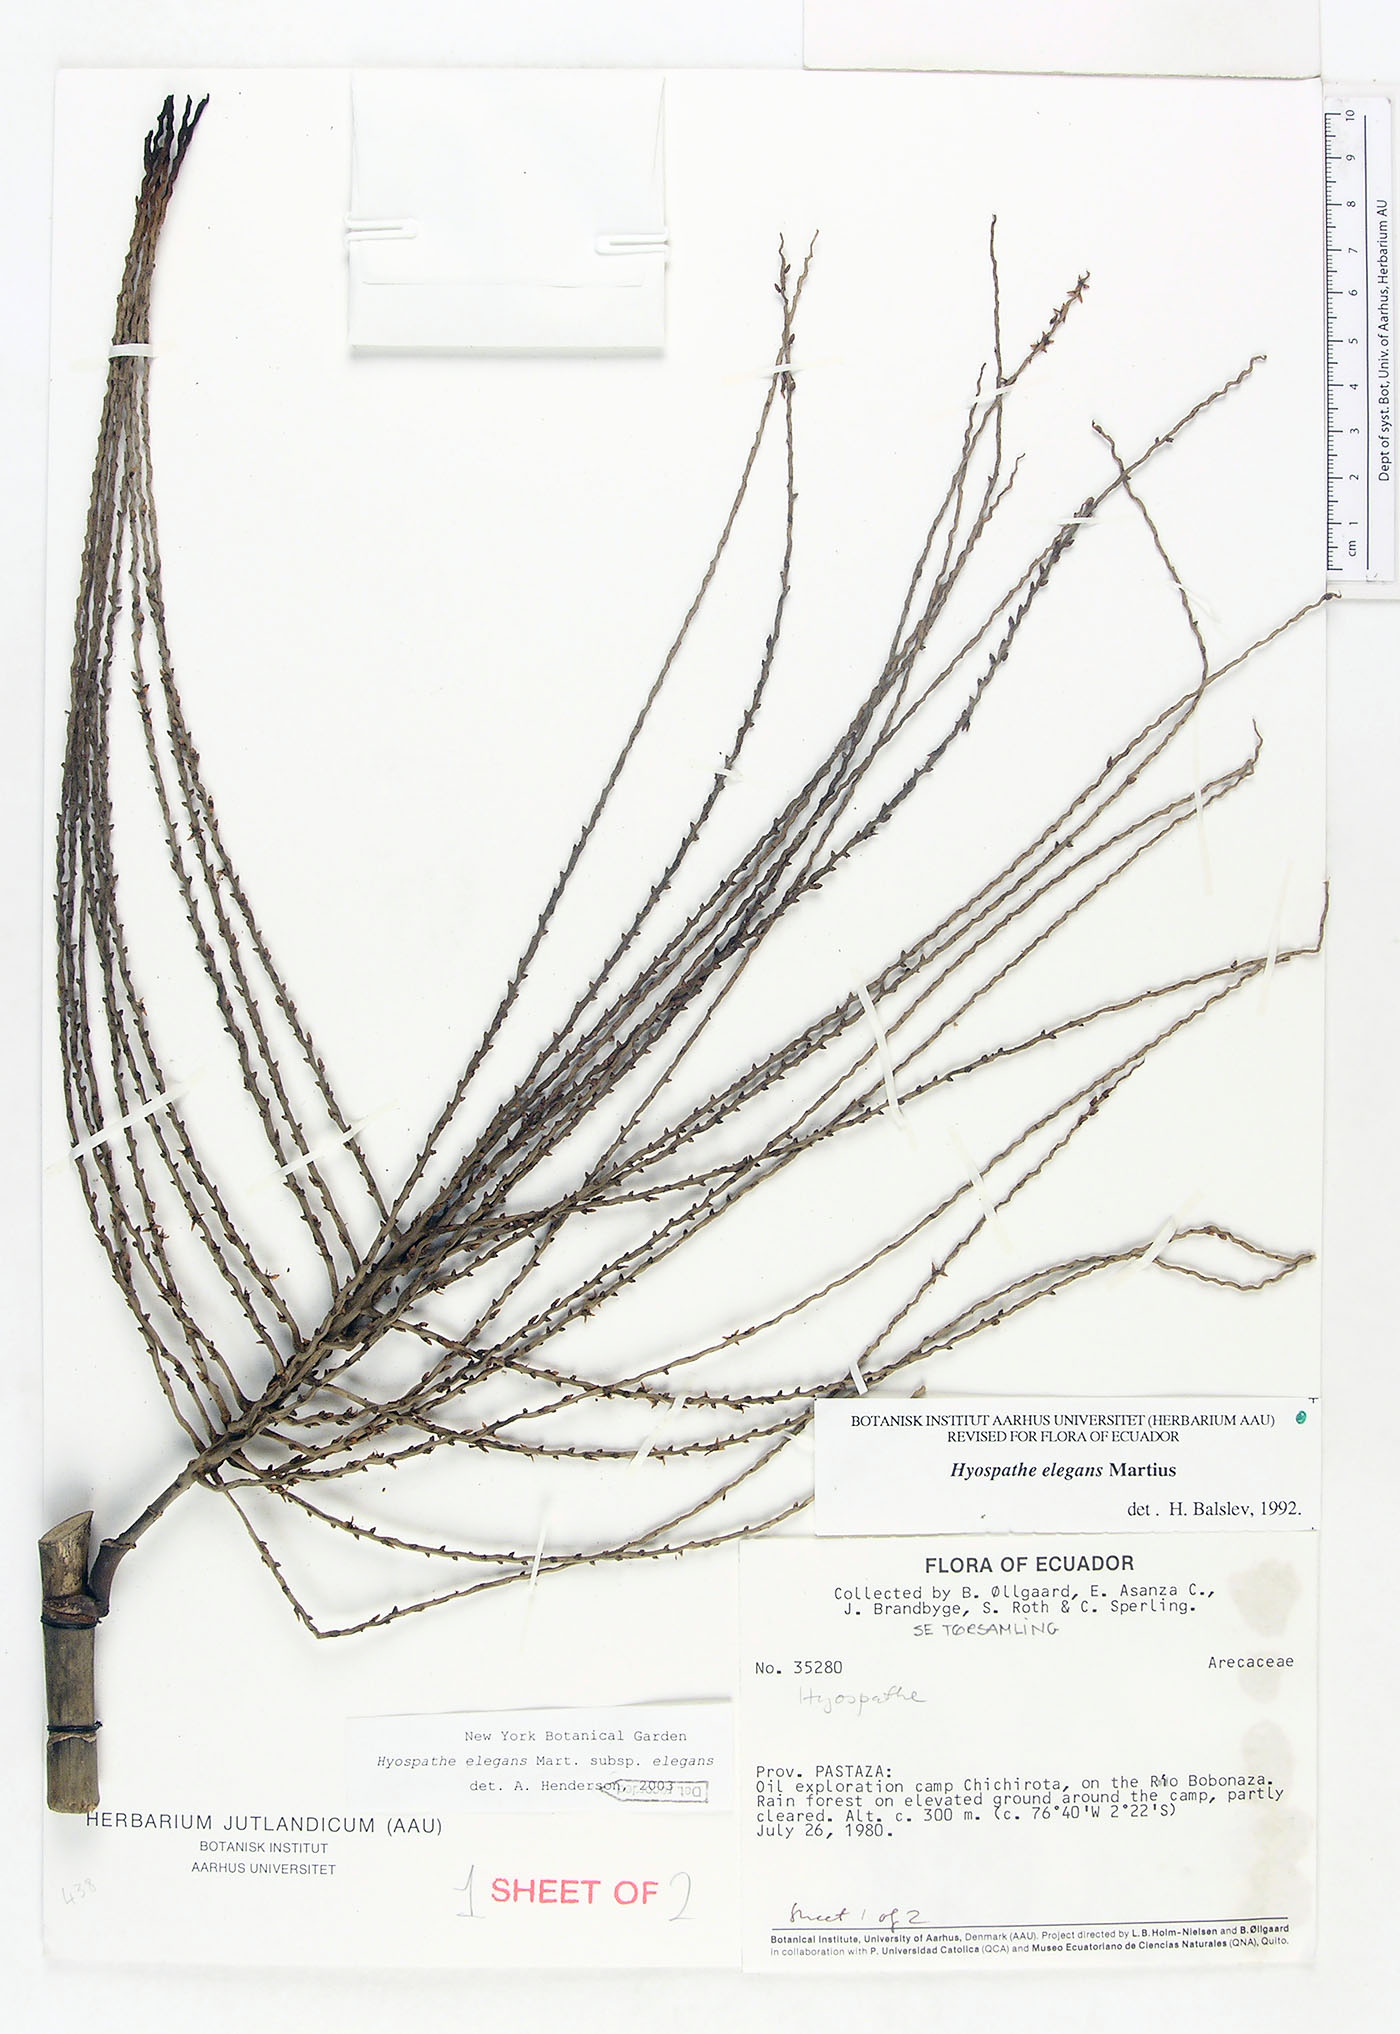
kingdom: Plantae
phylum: Tracheophyta
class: Liliopsida
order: Arecales
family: Arecaceae
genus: Hyospathe
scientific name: Hyospathe elegans
